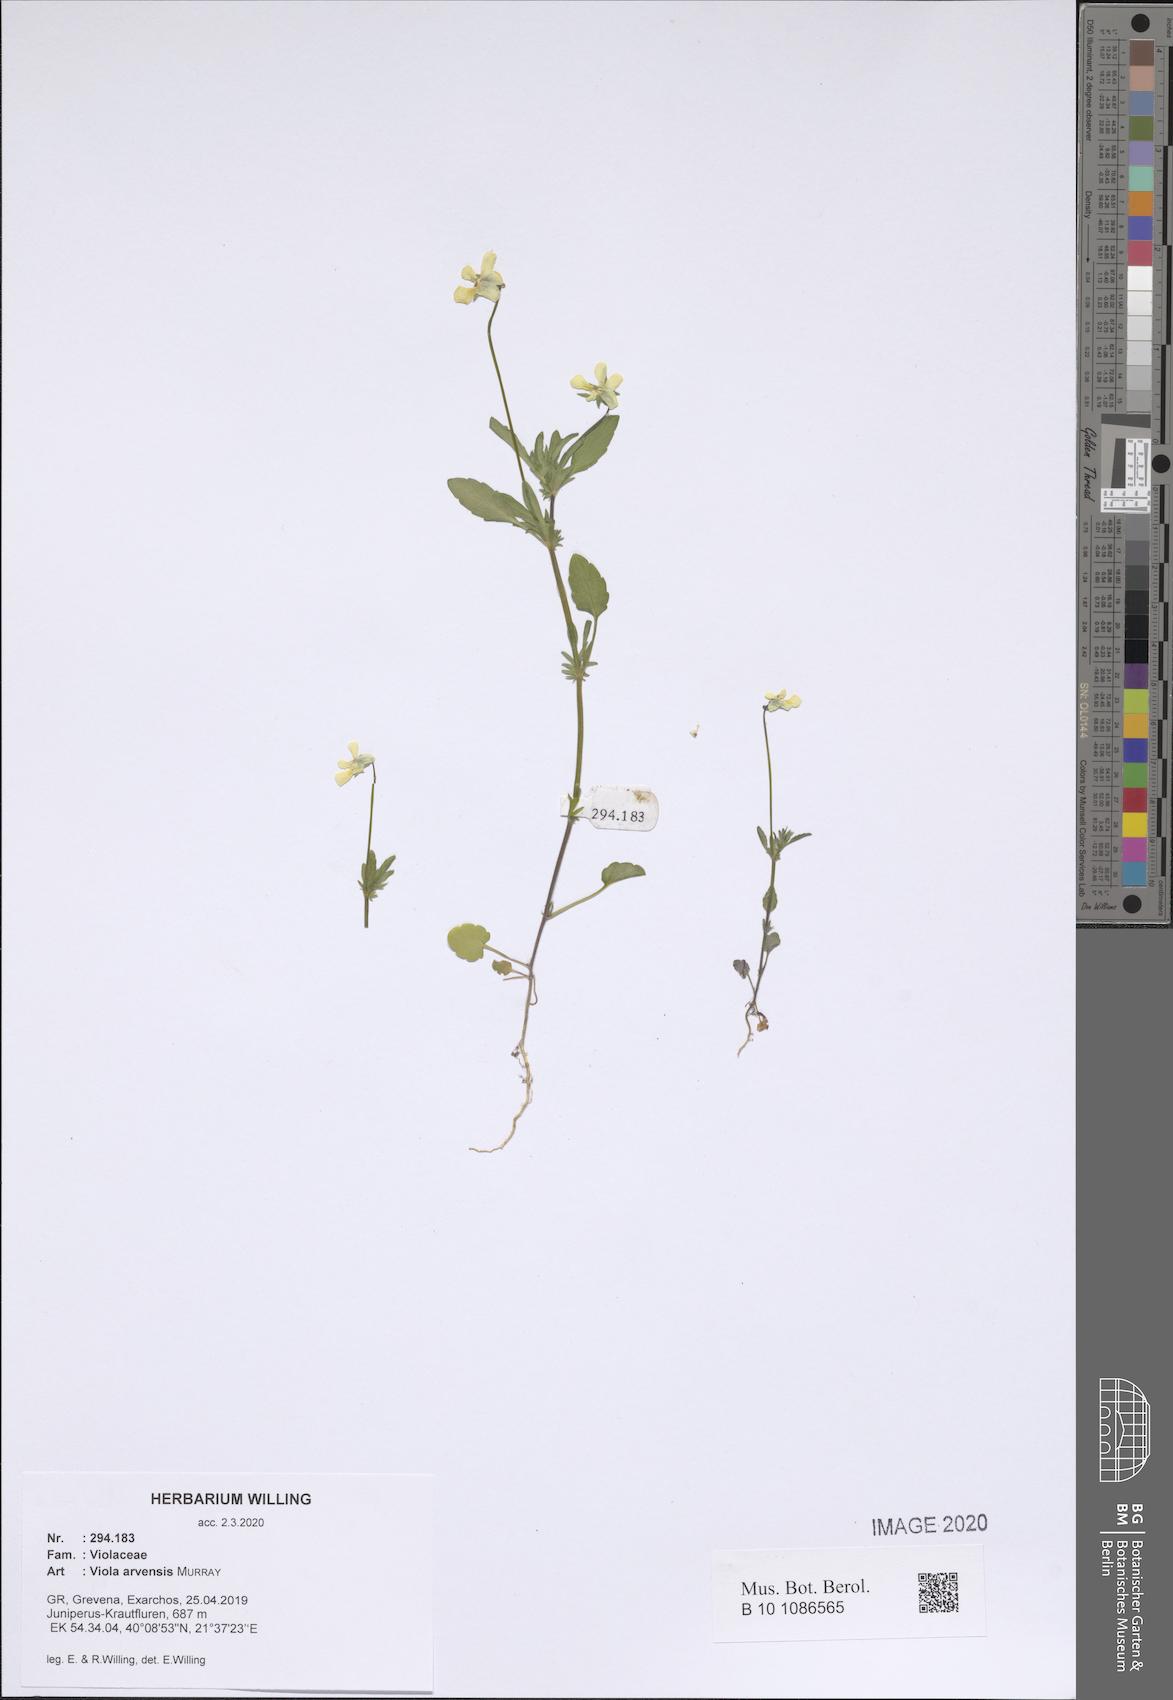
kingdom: Plantae
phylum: Tracheophyta
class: Magnoliopsida
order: Malpighiales
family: Violaceae
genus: Viola
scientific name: Viola arvensis
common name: Field pansy
